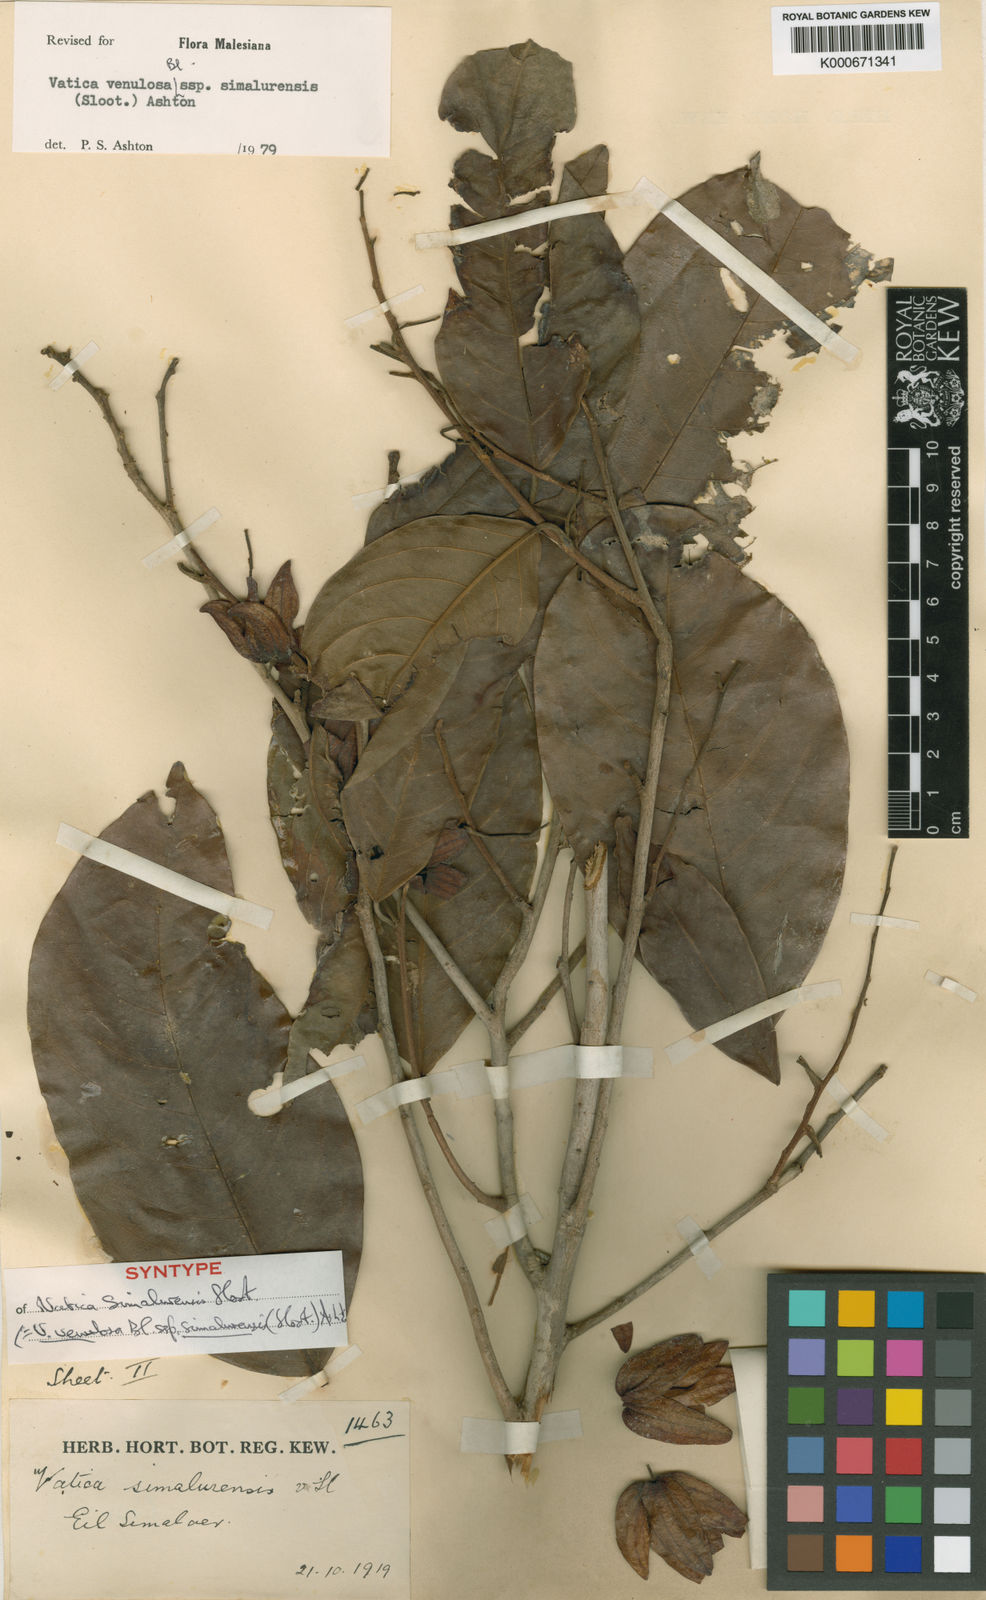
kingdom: Plantae
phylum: Tracheophyta
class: Magnoliopsida
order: Malvales
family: Dipterocarpaceae
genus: Vatica
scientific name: Vatica venulosa
